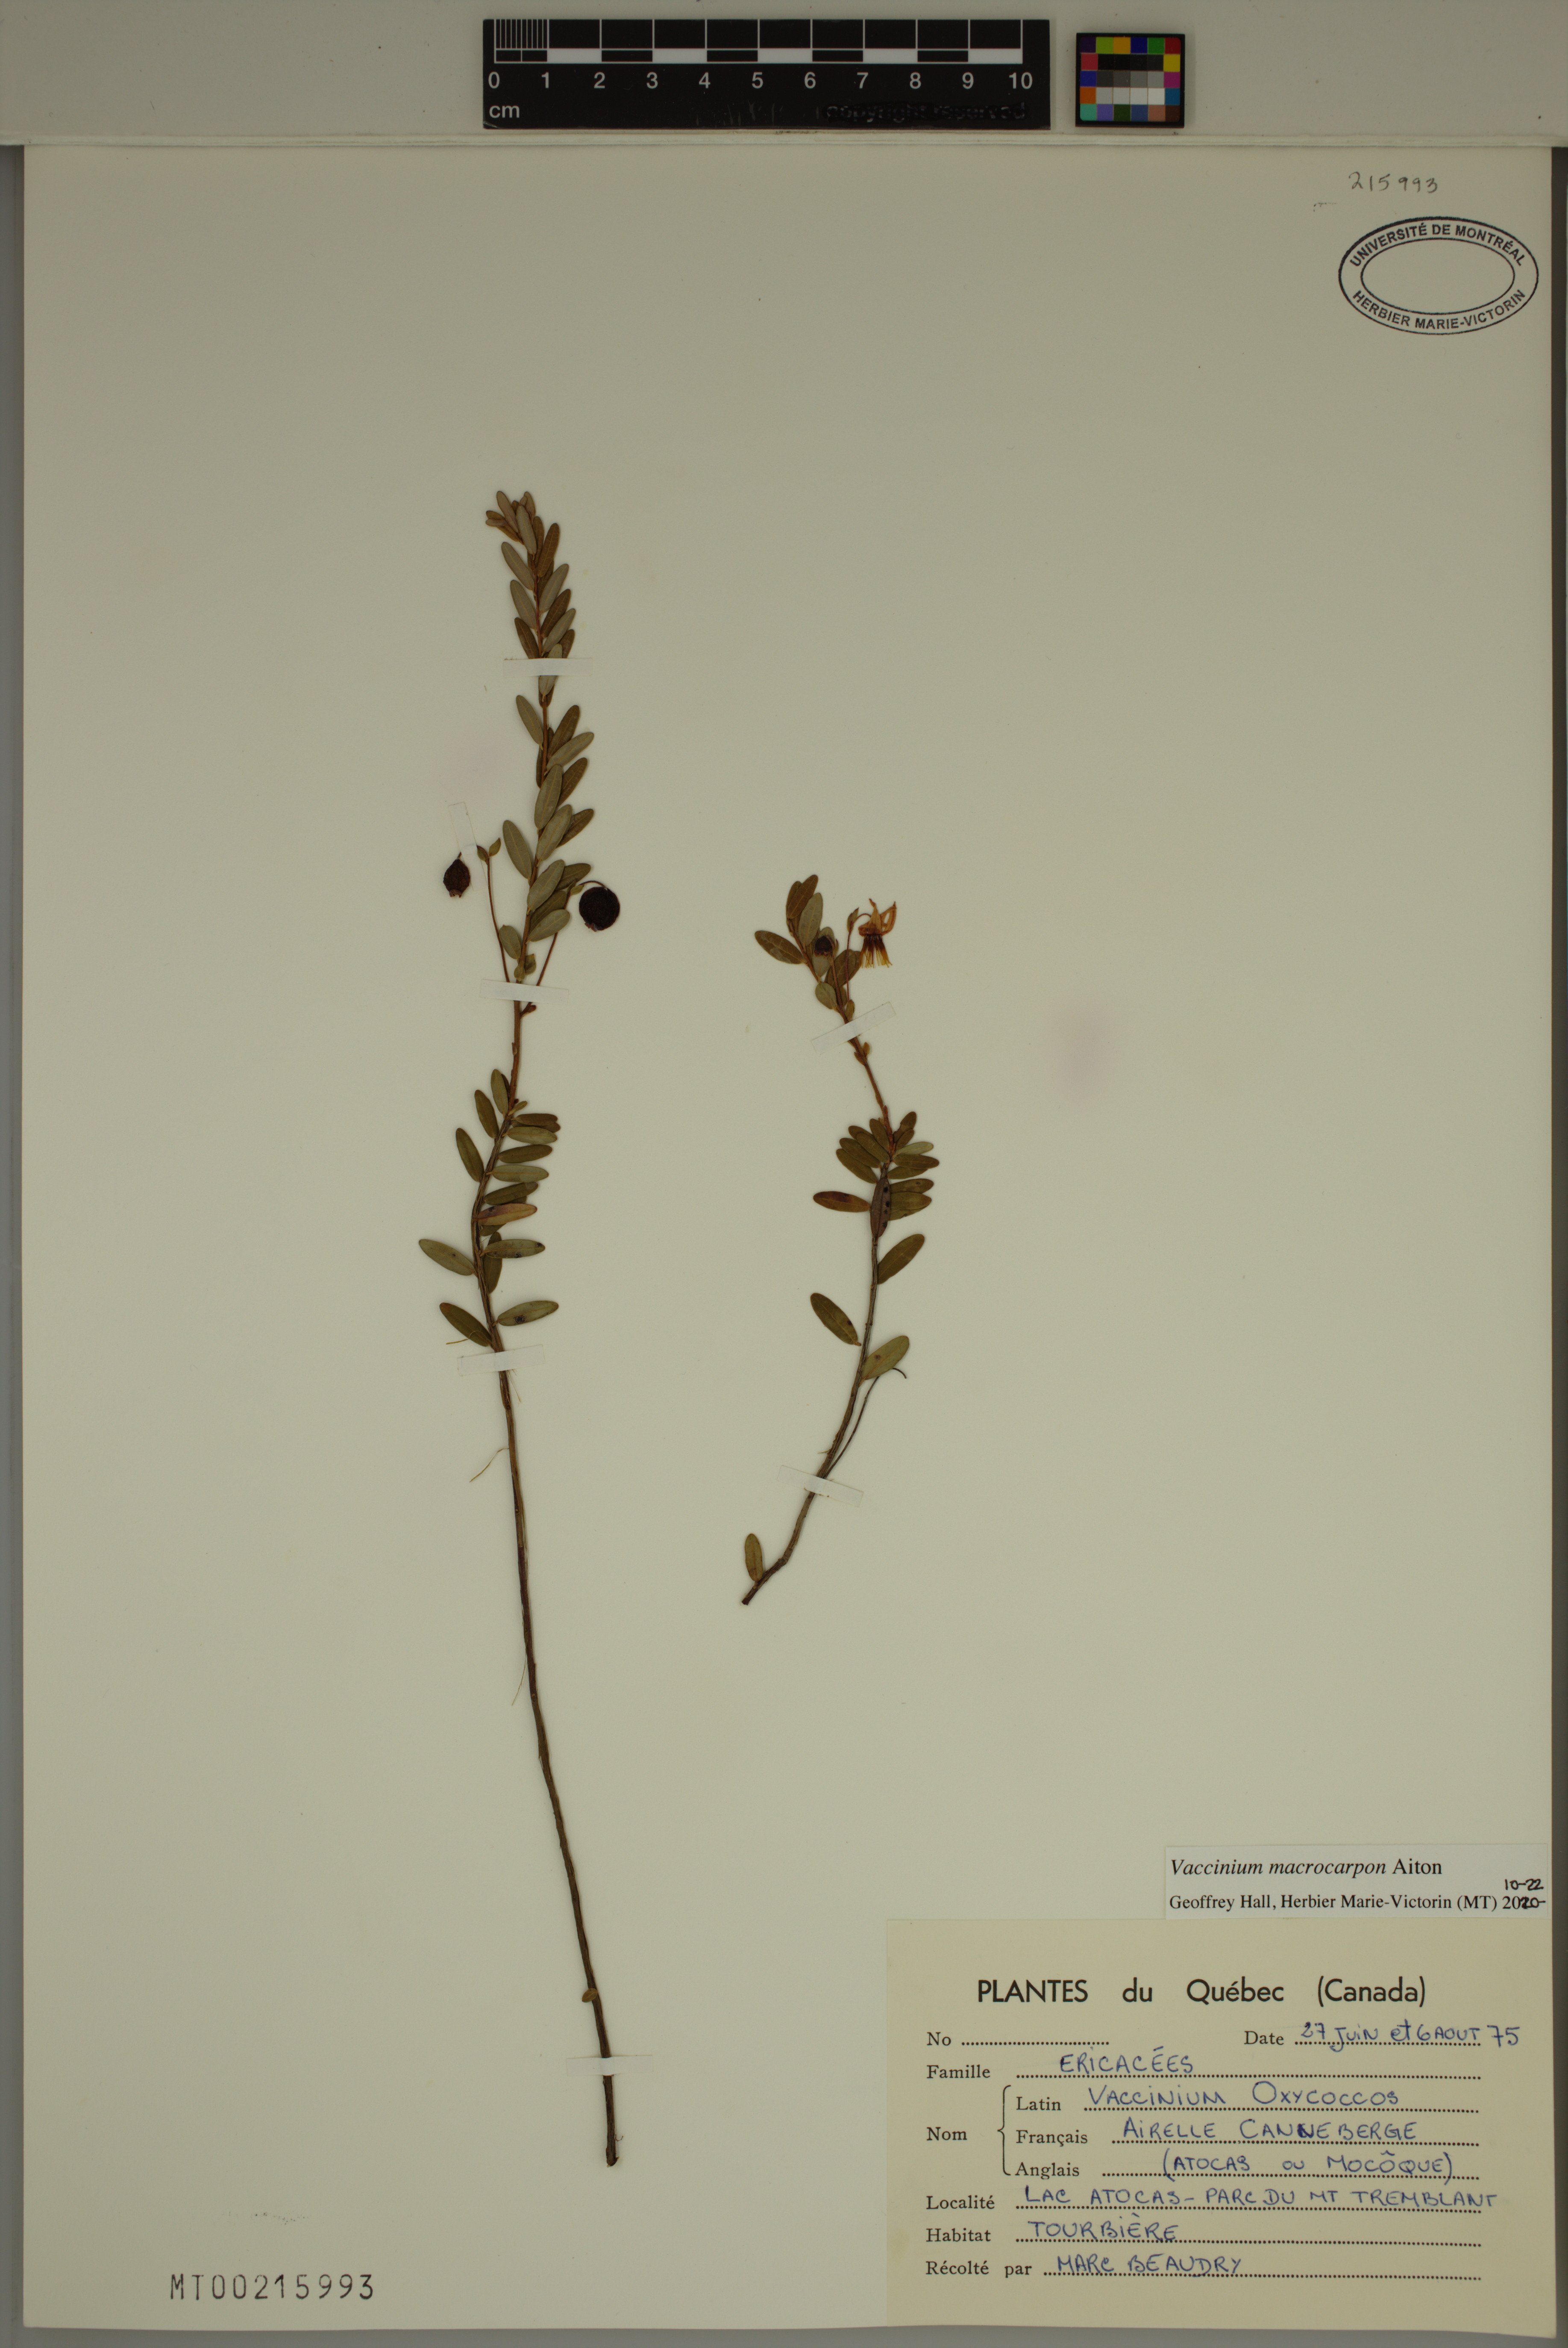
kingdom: Plantae
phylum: Tracheophyta
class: Magnoliopsida
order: Ericales
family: Ericaceae
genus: Vaccinium
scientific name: Vaccinium macrocarpon
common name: American cranberry
